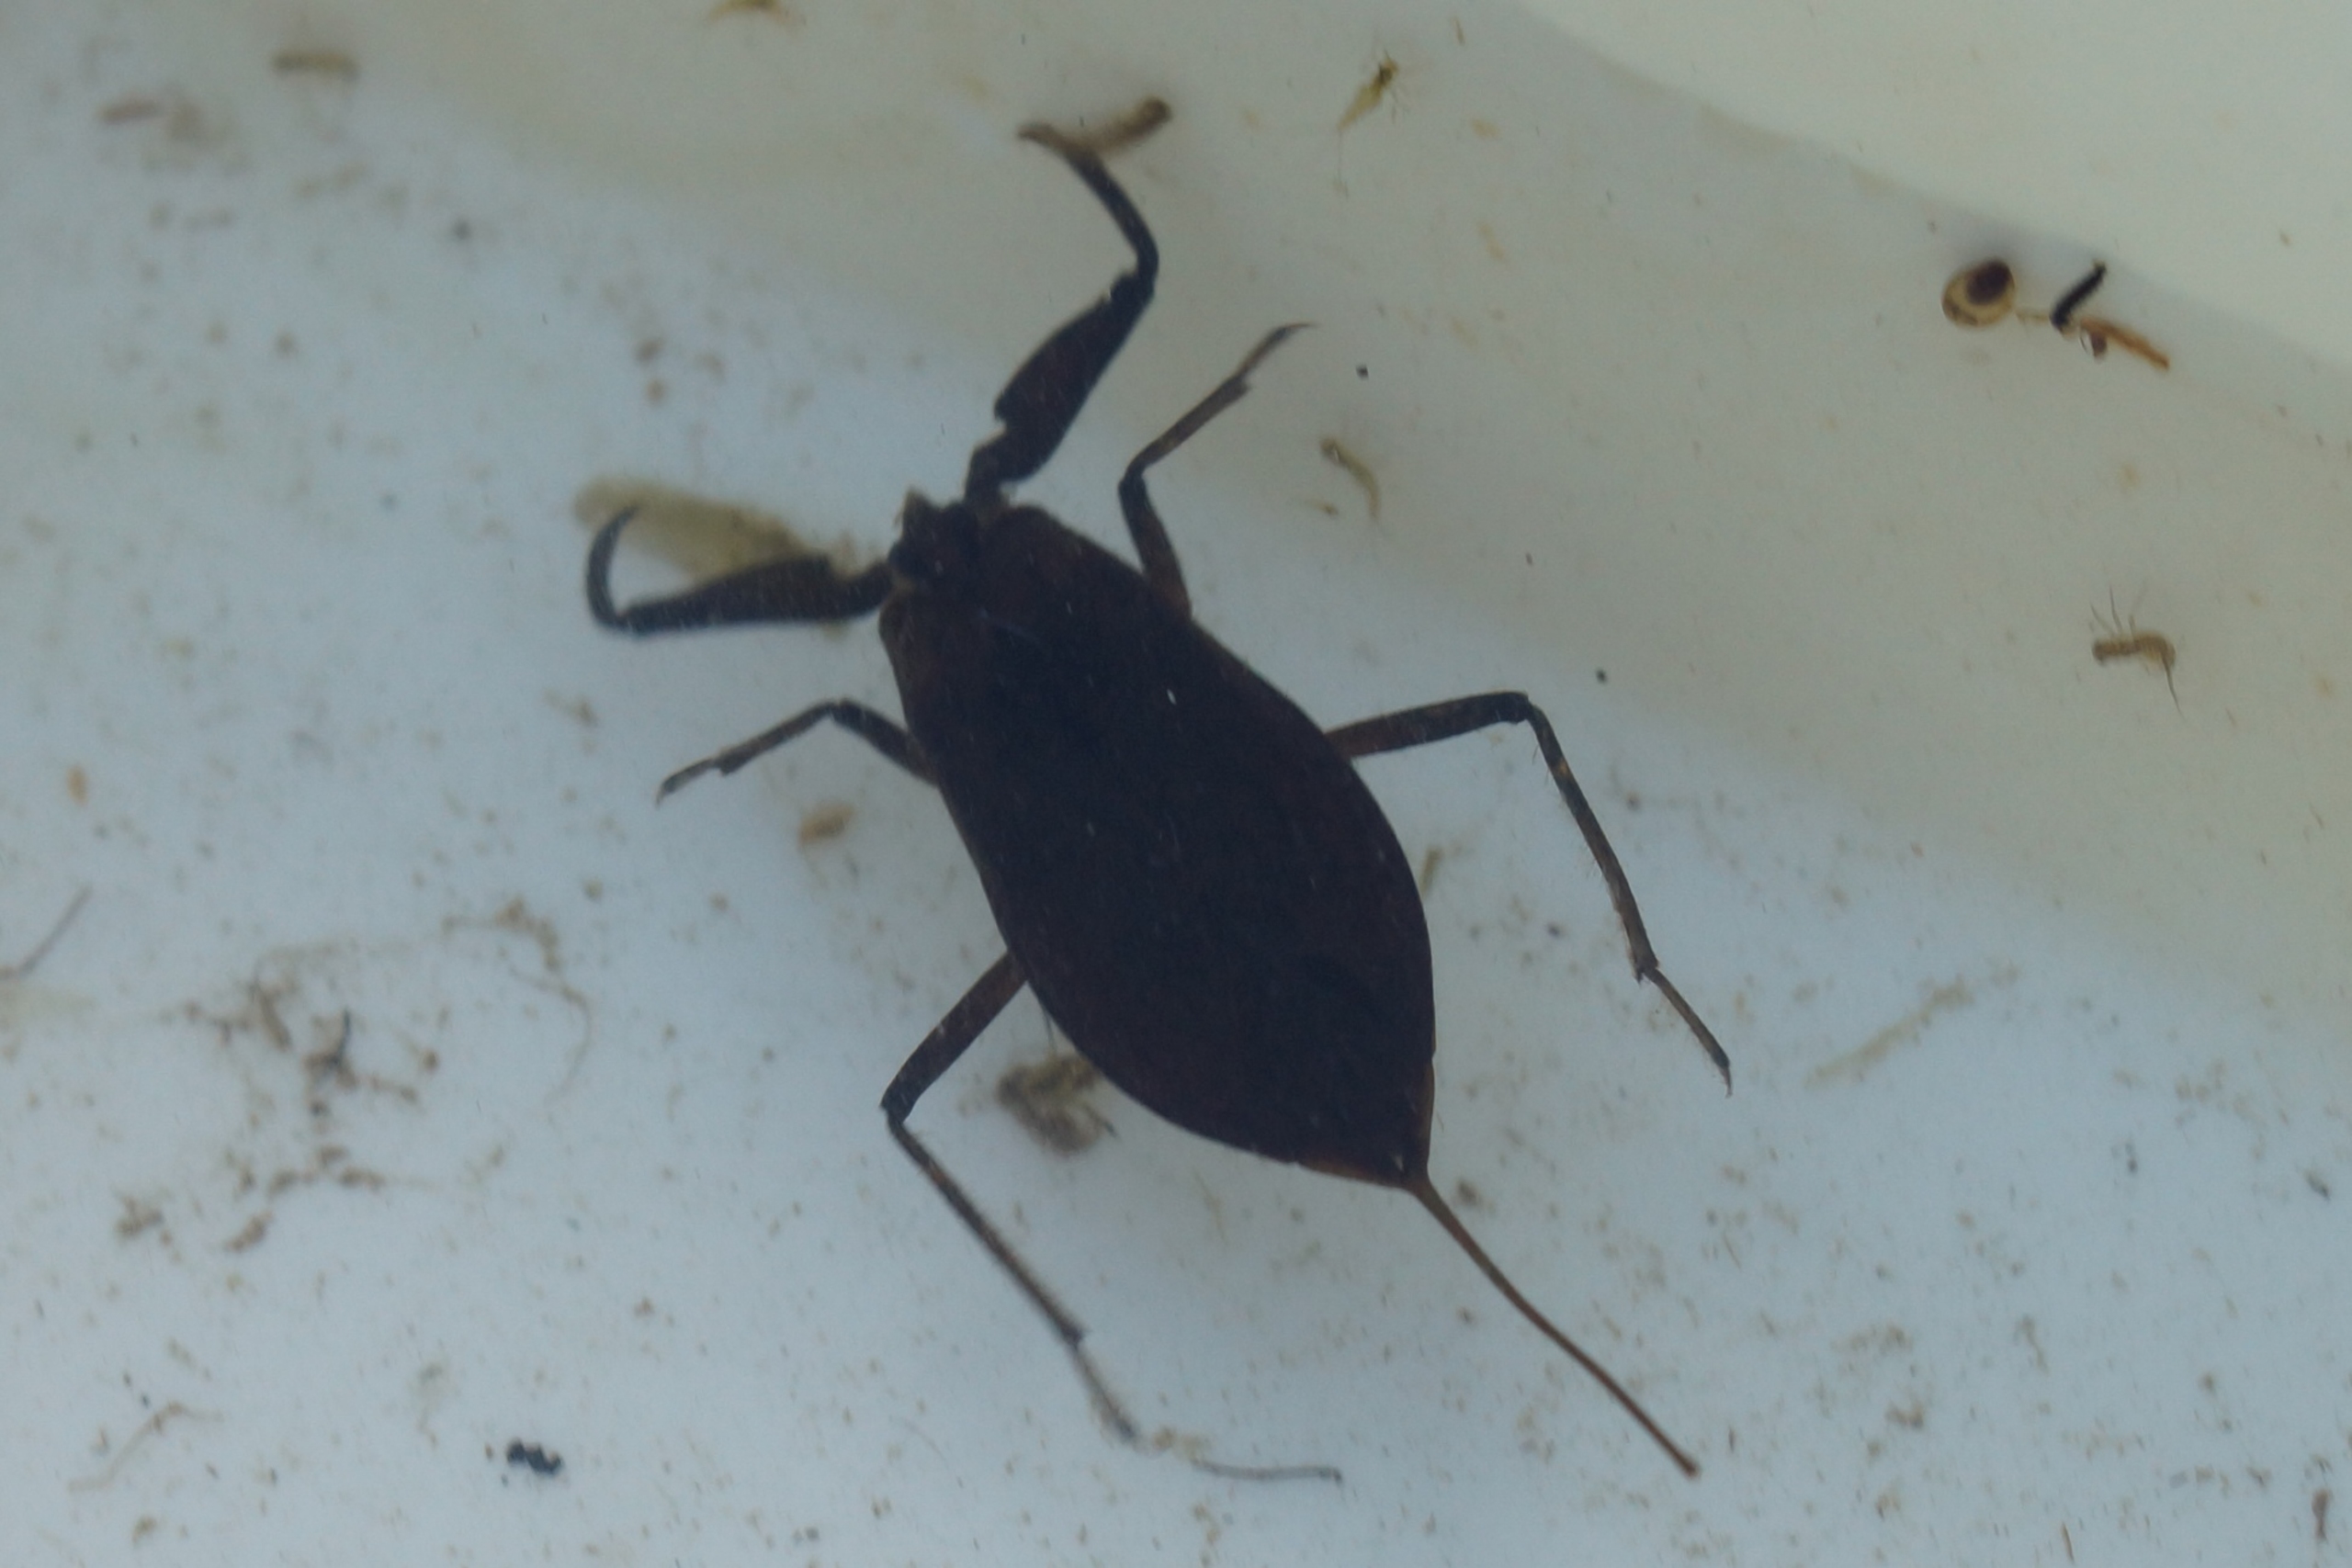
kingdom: Animalia
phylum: Arthropoda
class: Insecta
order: Hemiptera
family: Nepidae
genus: Nepa
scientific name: Nepa cinerea
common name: Skorpiontæge
